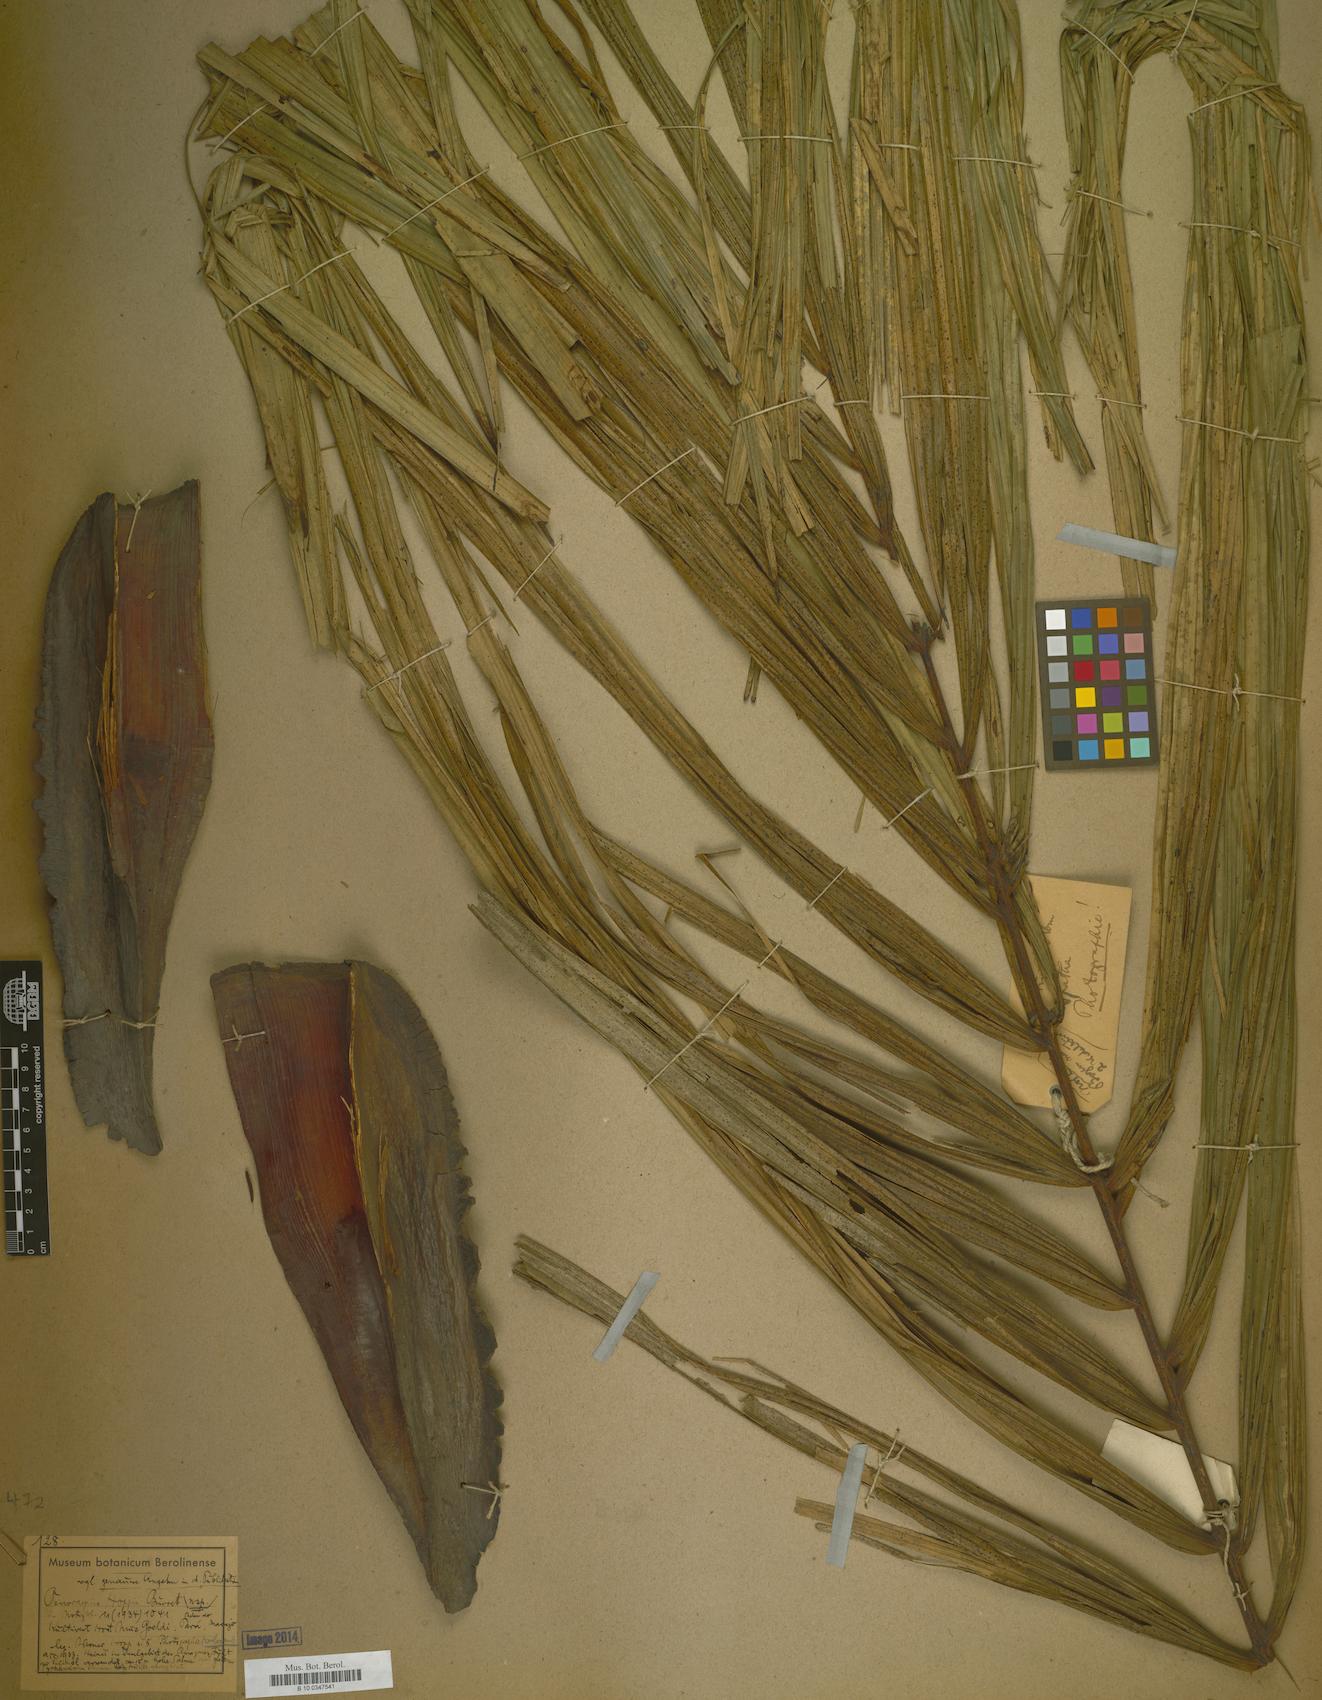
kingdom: Plantae
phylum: Tracheophyta
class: Liliopsida
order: Arecales
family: Arecaceae
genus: Oenocarpus
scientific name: Oenocarpus bacaba
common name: Bacaba palm
